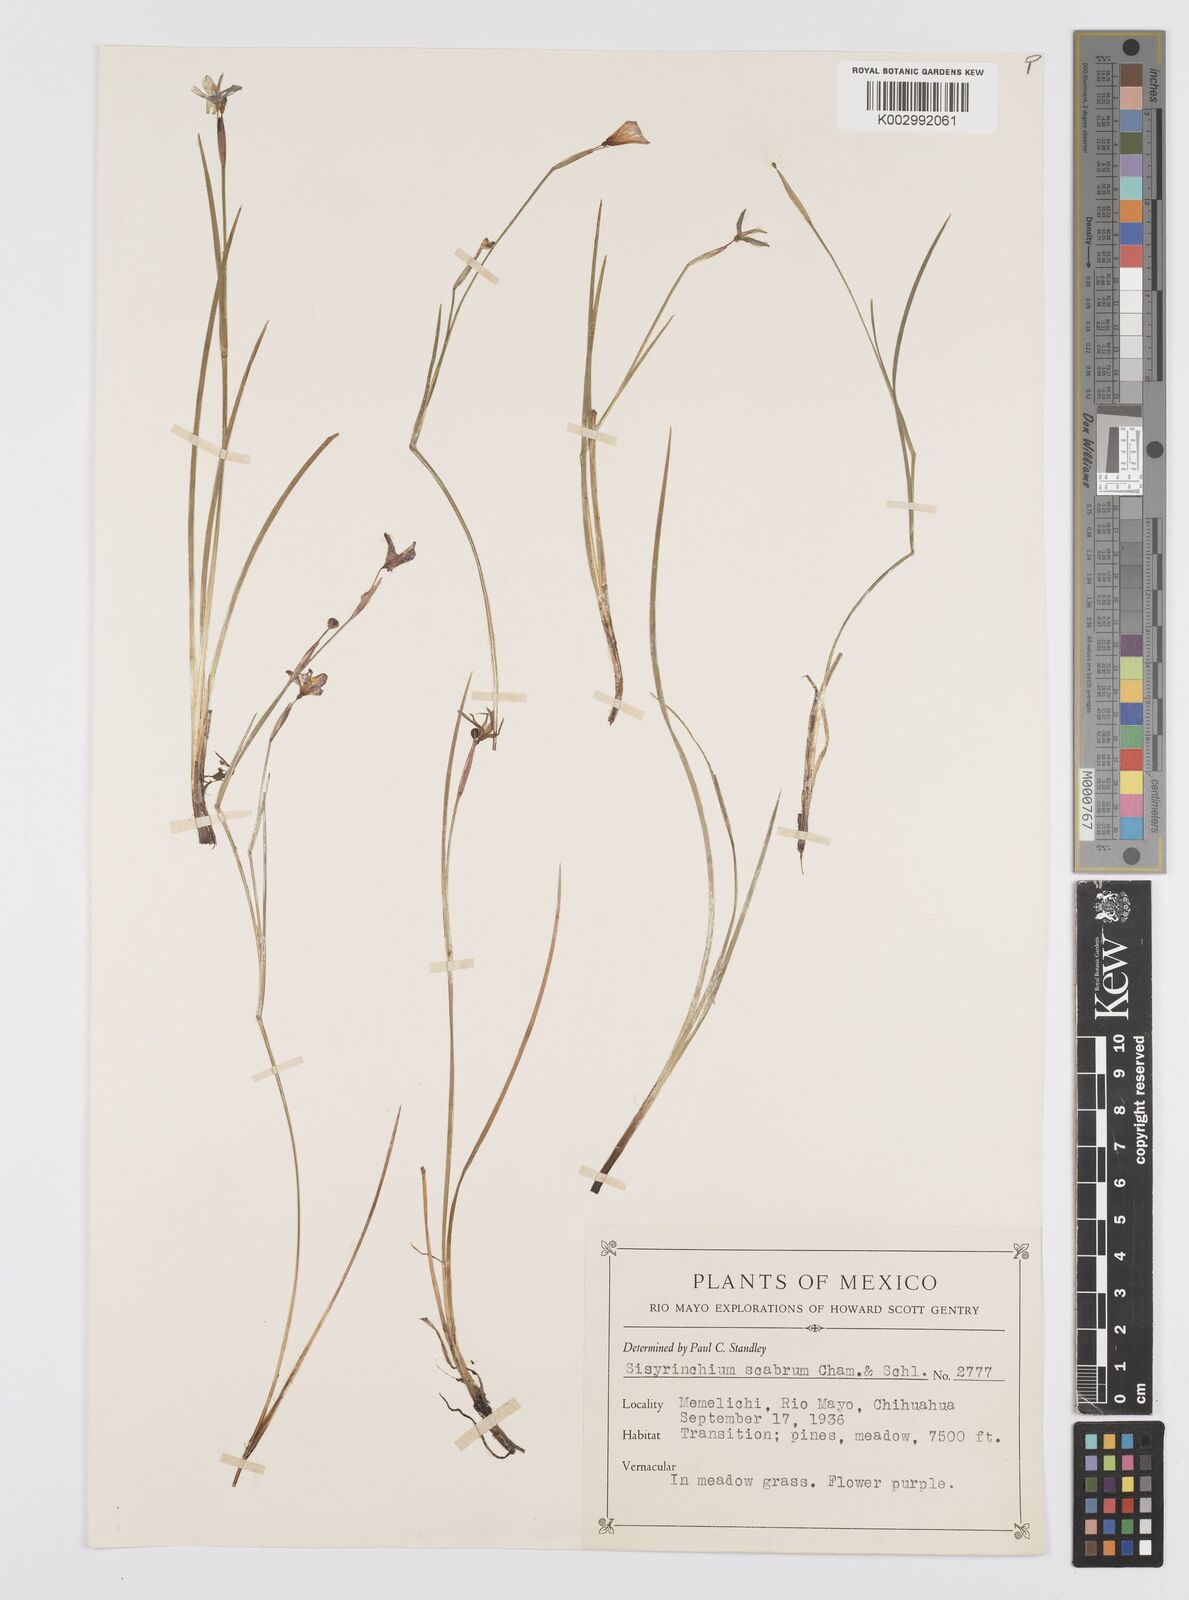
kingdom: Plantae
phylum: Tracheophyta
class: Liliopsida
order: Asparagales
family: Iridaceae
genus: Sisyrinchium
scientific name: Sisyrinchium scabrum
